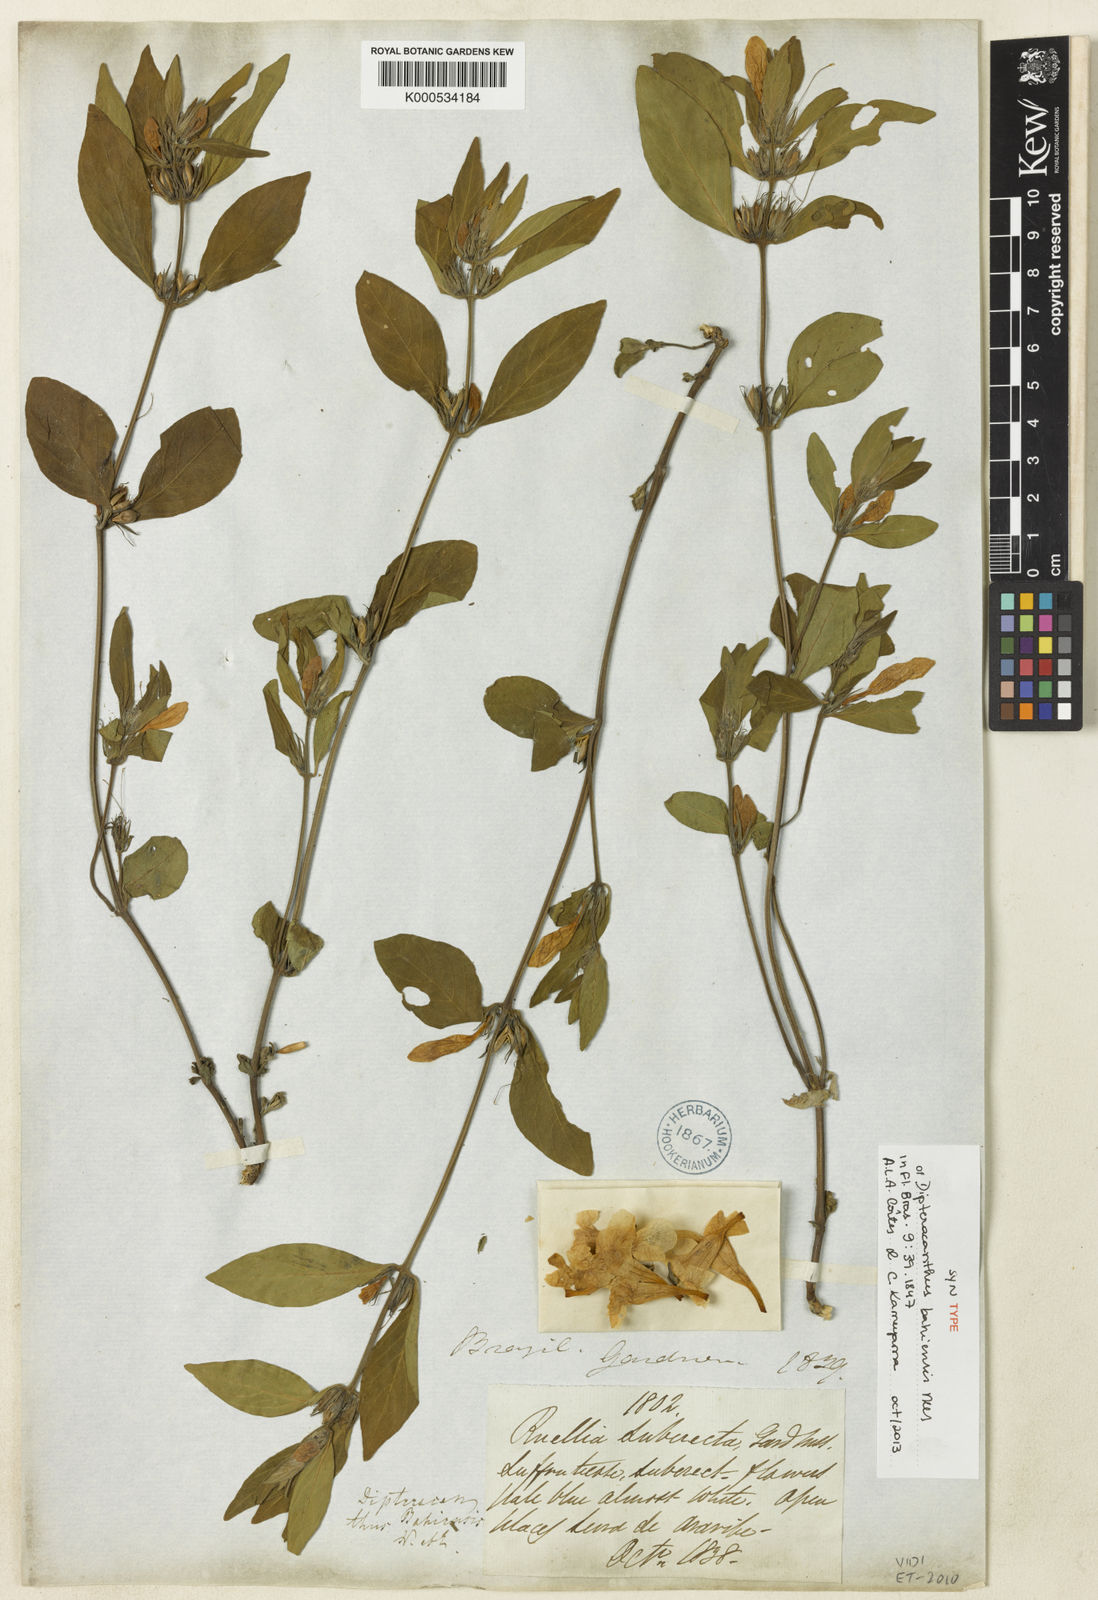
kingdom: Plantae
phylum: Tracheophyta
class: Magnoliopsida
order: Lamiales
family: Acanthaceae
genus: Ruellia
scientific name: Ruellia bahiensis
